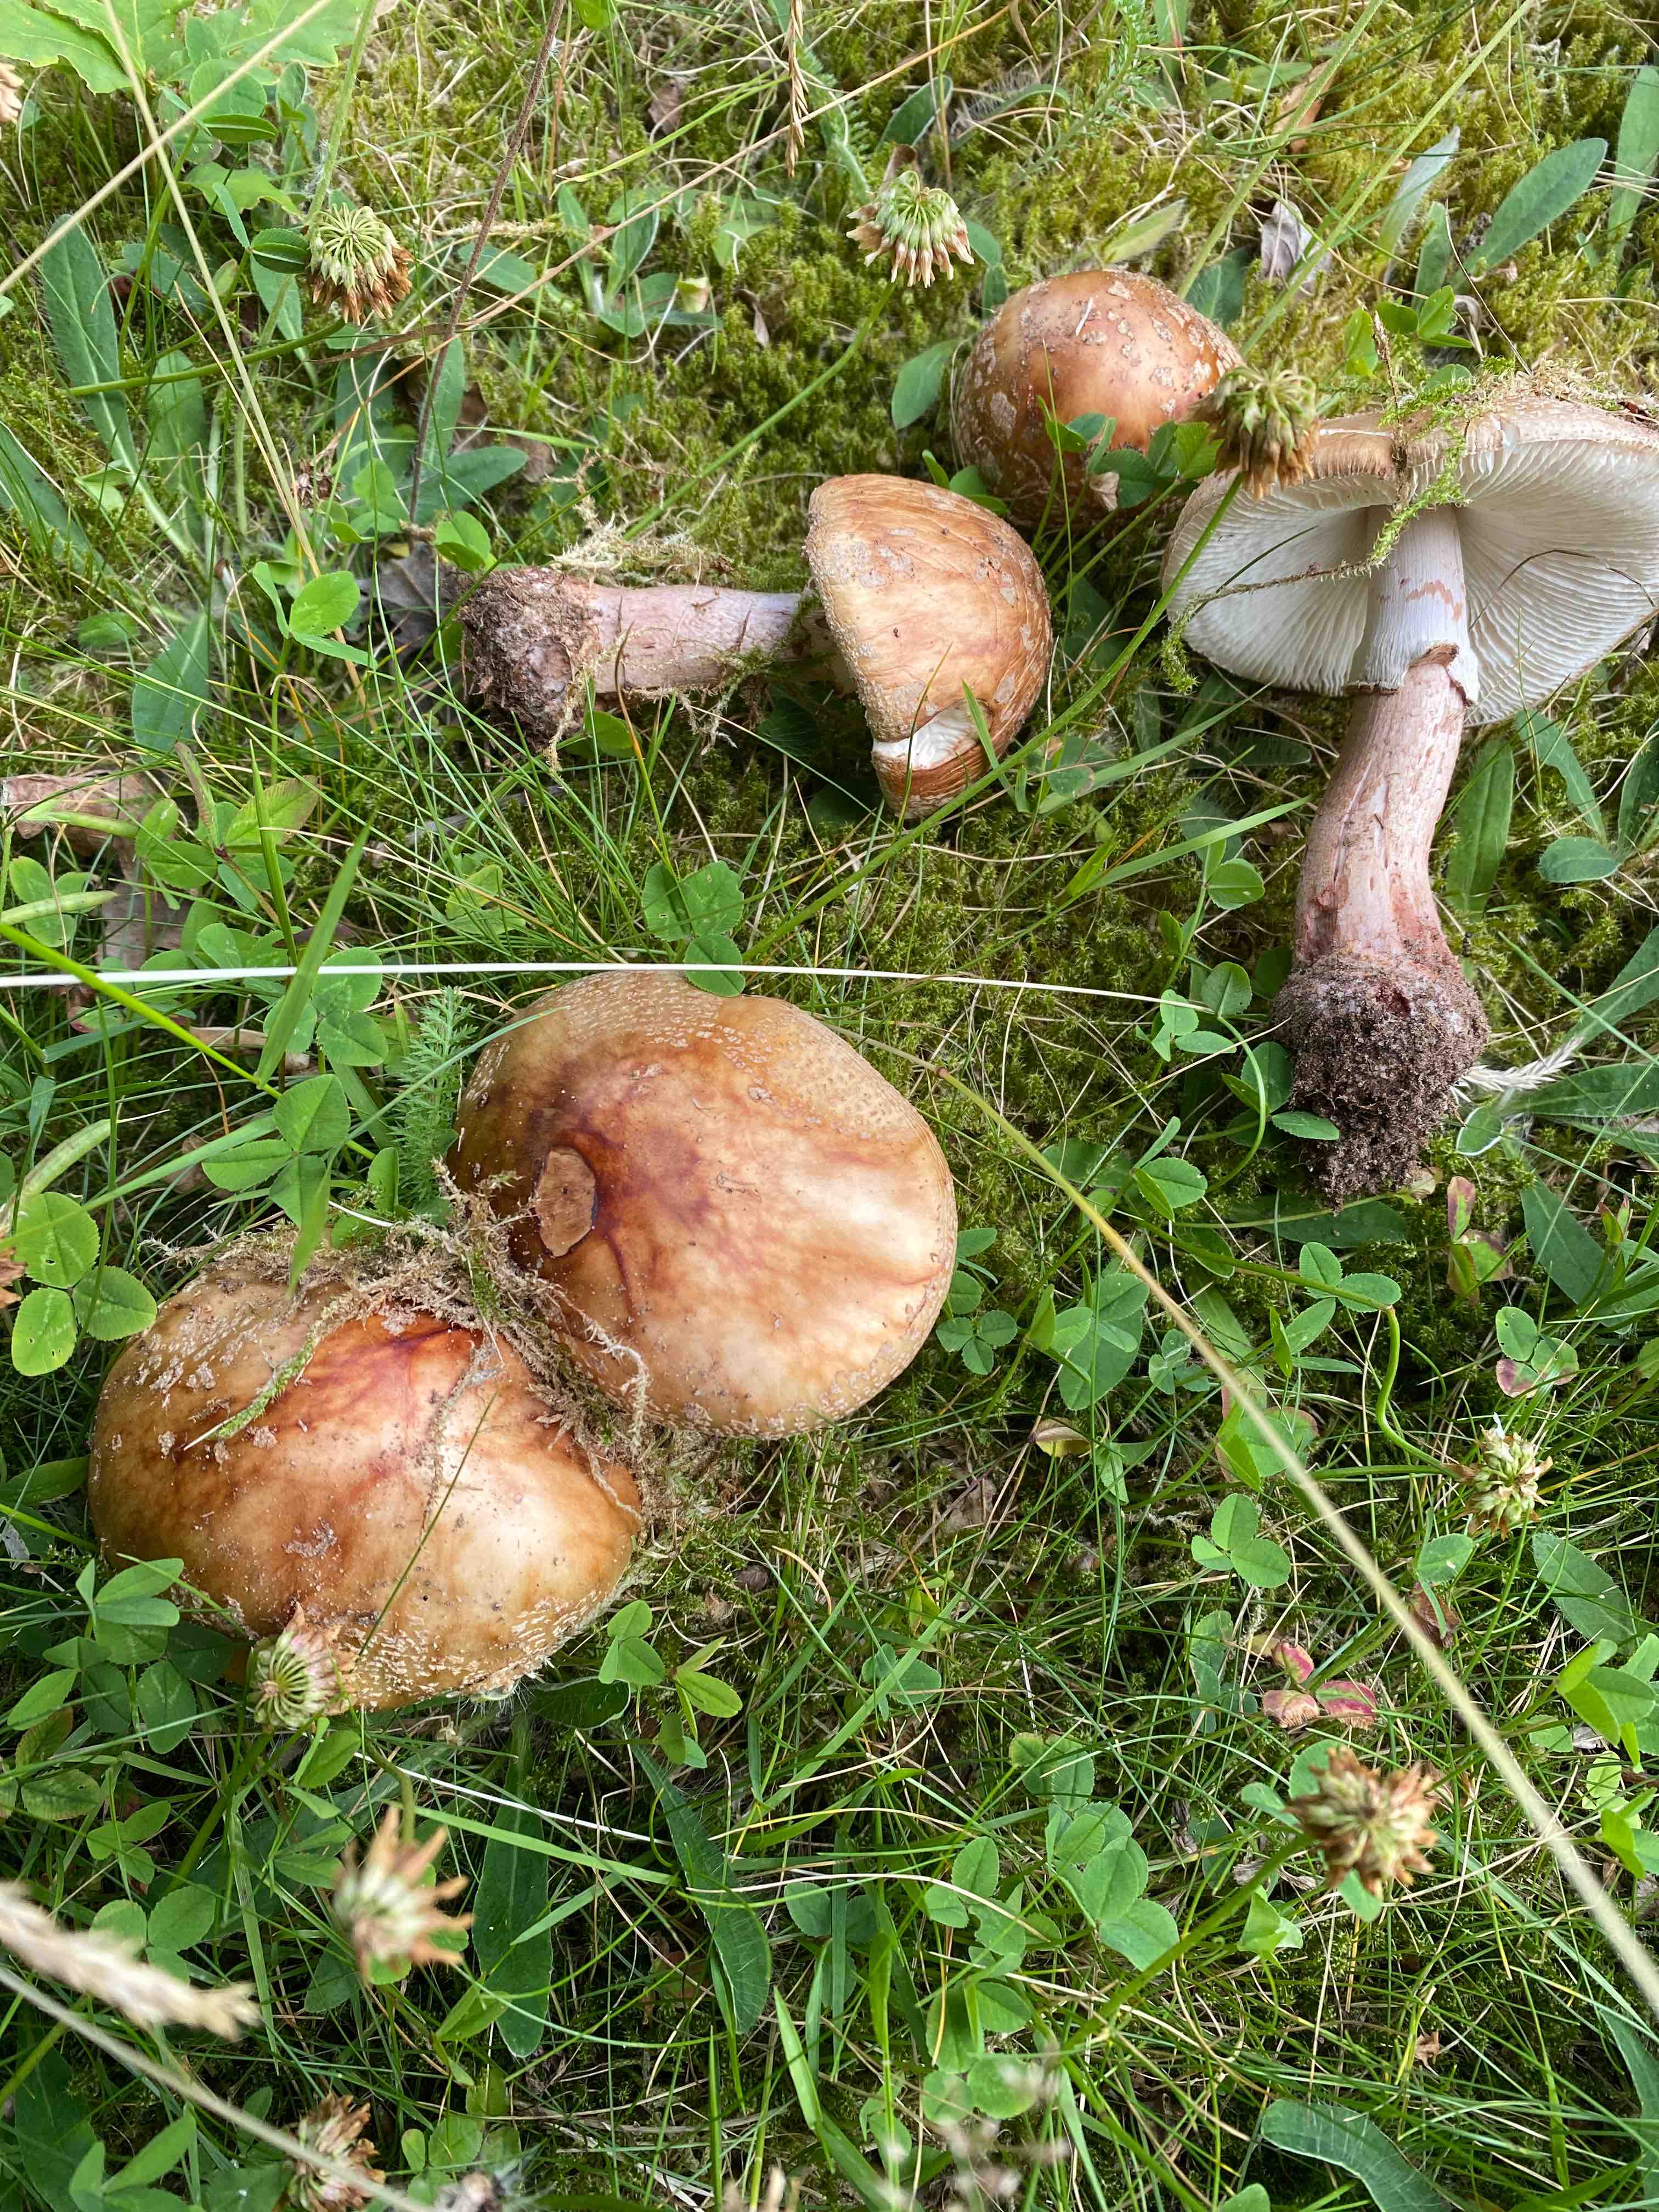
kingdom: Fungi
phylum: Basidiomycota
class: Agaricomycetes
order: Agaricales
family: Amanitaceae
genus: Amanita
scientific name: Amanita rubescens
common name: rødmende fluesvamp
